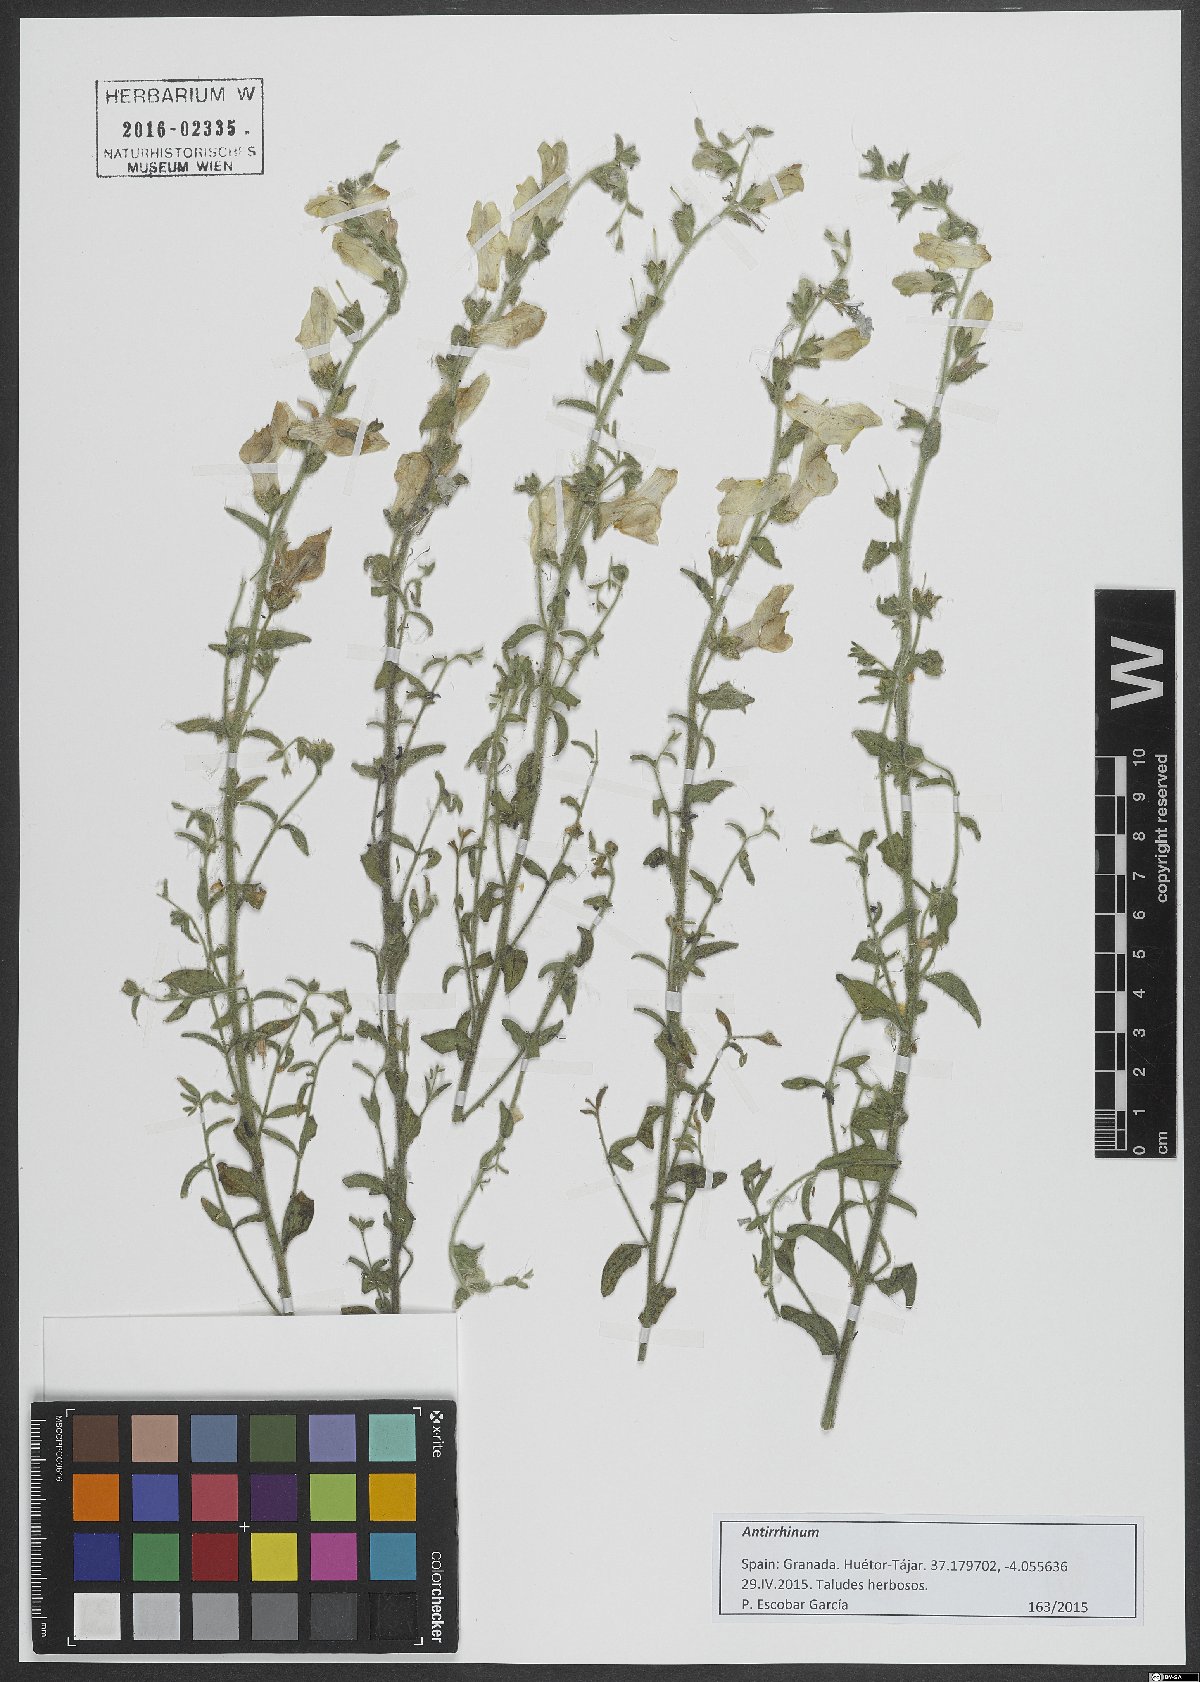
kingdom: Plantae
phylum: Tracheophyta
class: Magnoliopsida
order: Lamiales
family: Plantaginaceae
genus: Antirrhinum
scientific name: Antirrhinum
